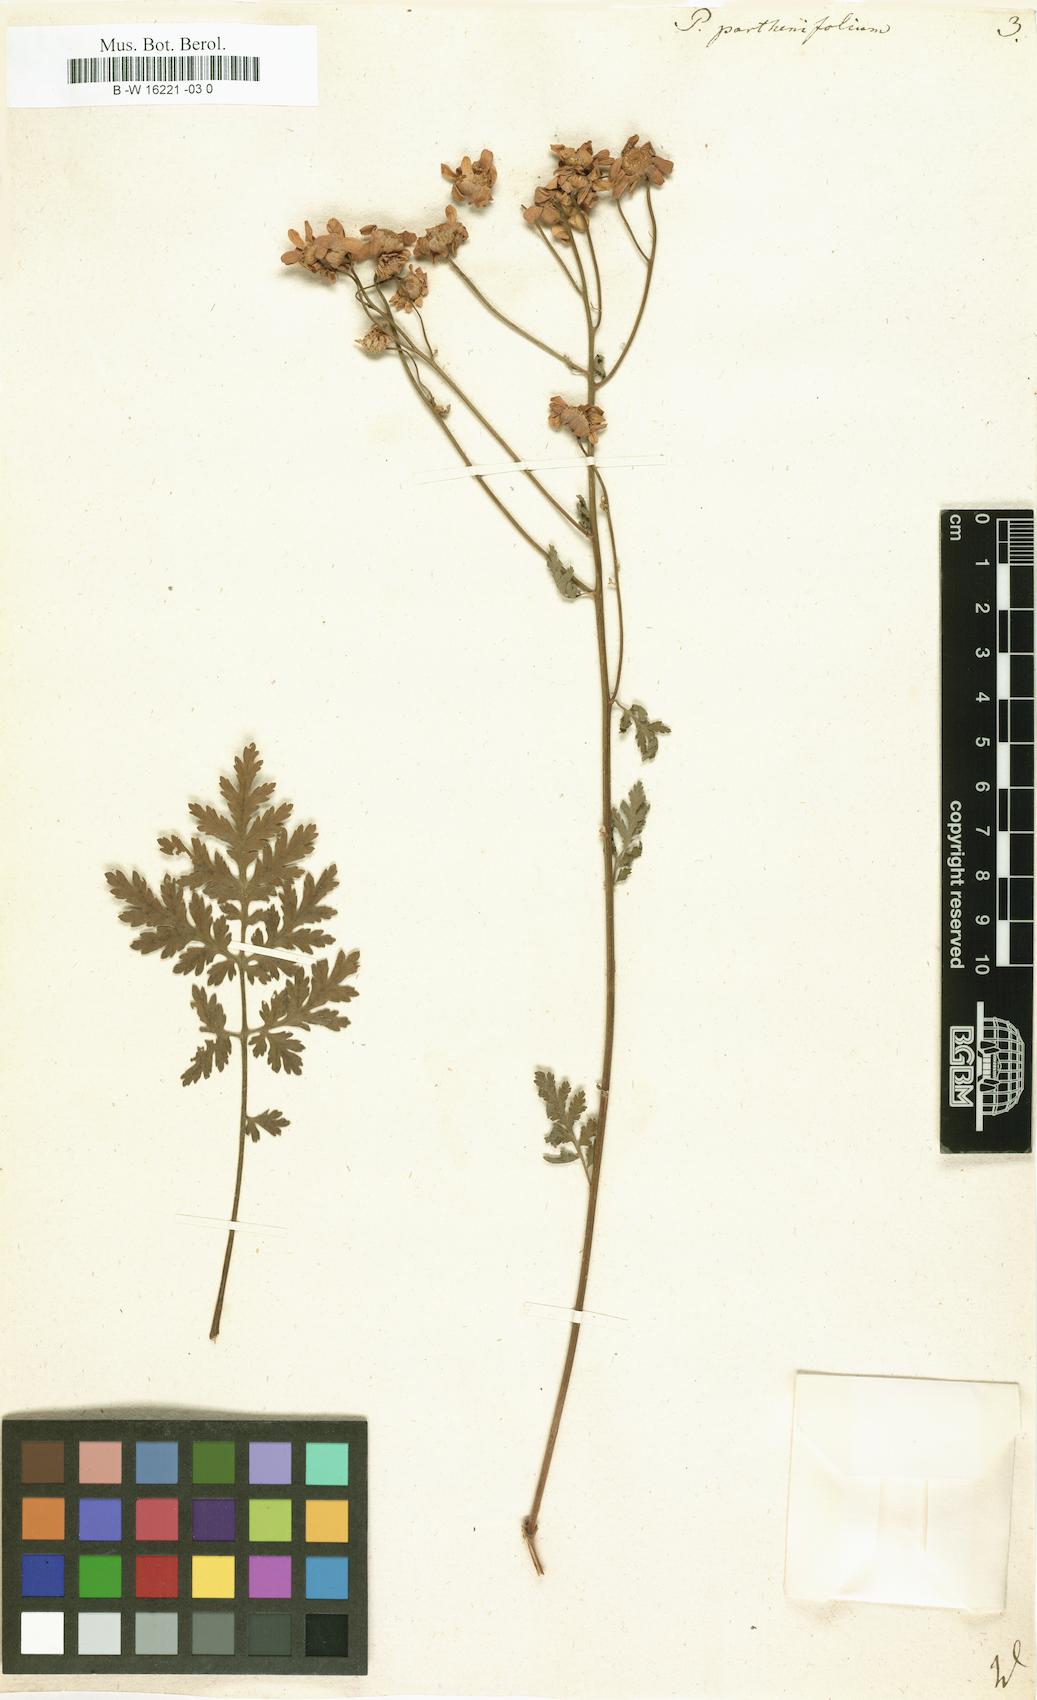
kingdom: Plantae
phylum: Tracheophyta
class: Magnoliopsida
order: Asterales
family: Asteraceae
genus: Tanacetum
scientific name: Tanacetum partheniifolium
